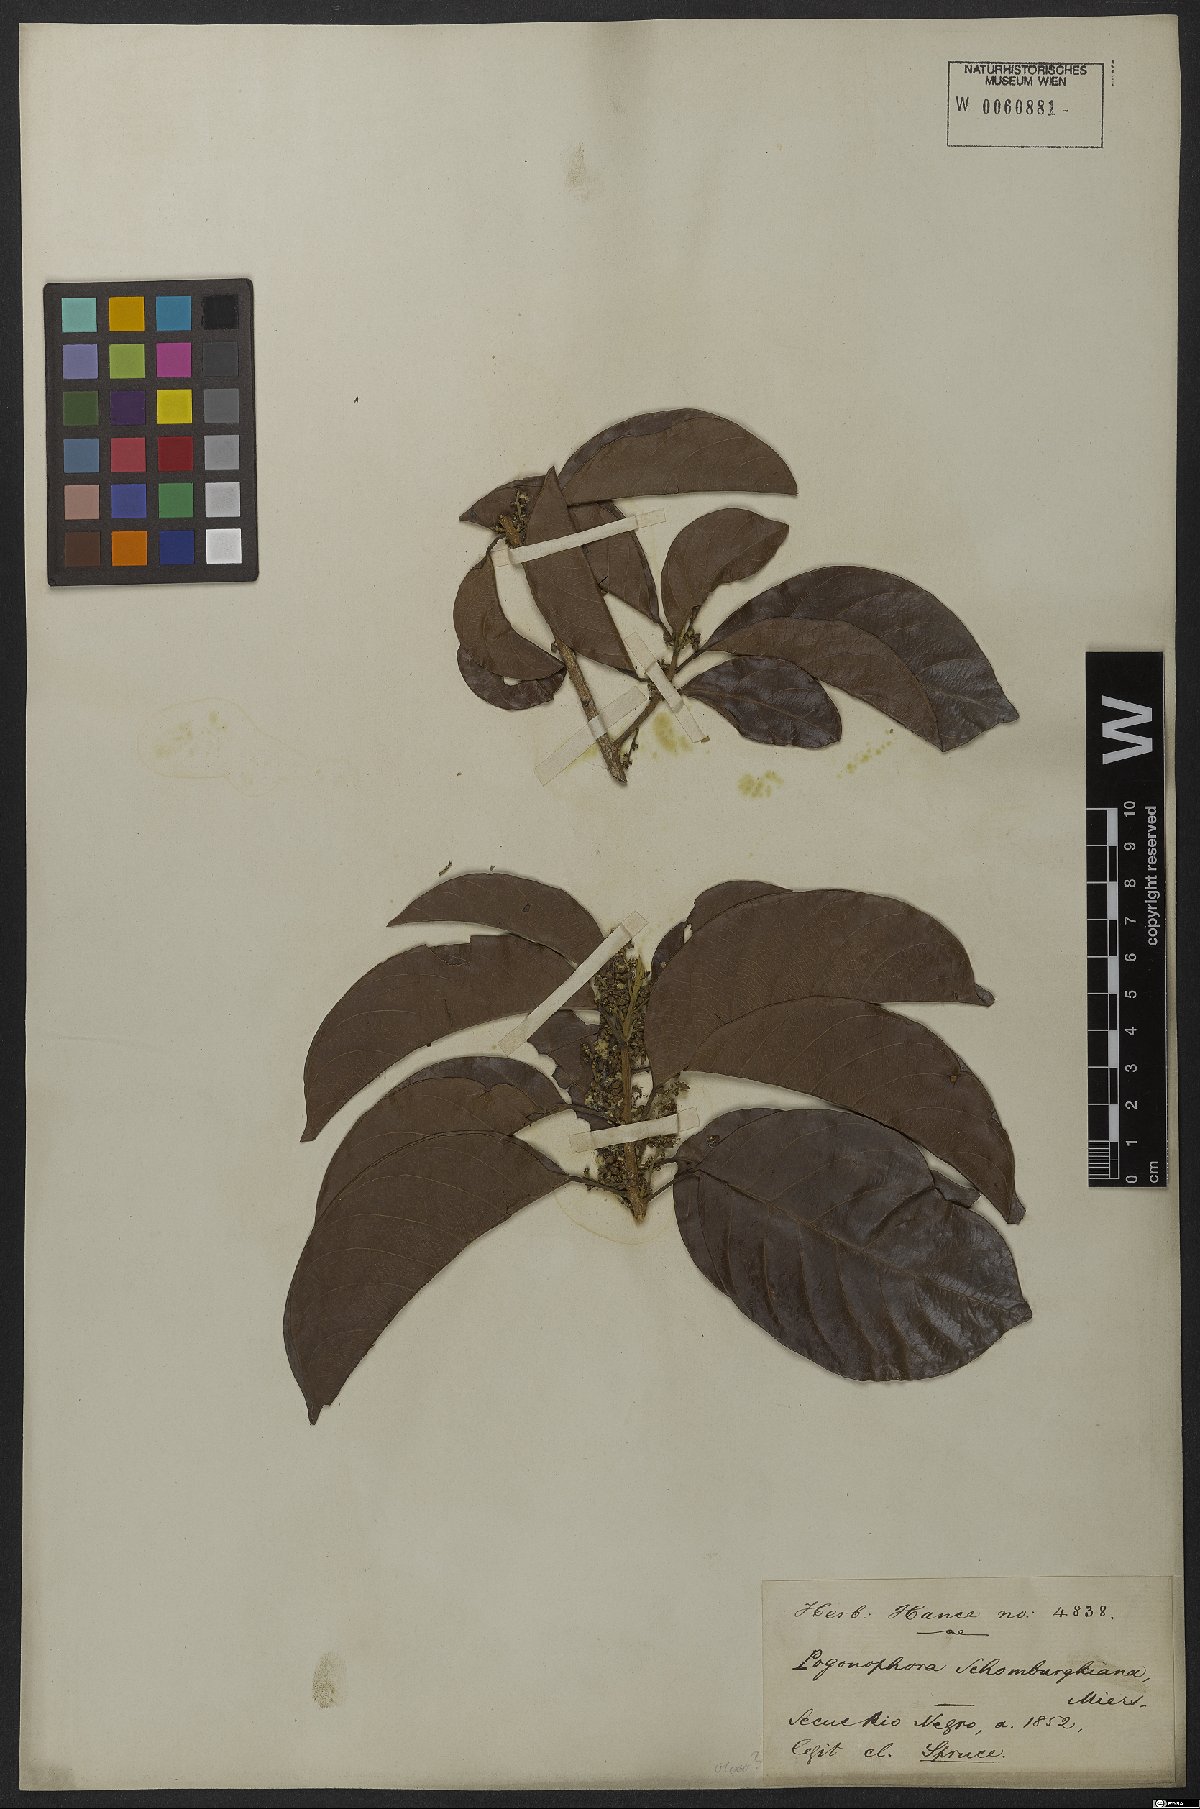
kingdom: Plantae
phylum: Tracheophyta
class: Magnoliopsida
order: Malpighiales
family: Peraceae
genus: Pogonophora
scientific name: Pogonophora schomburgkiana
